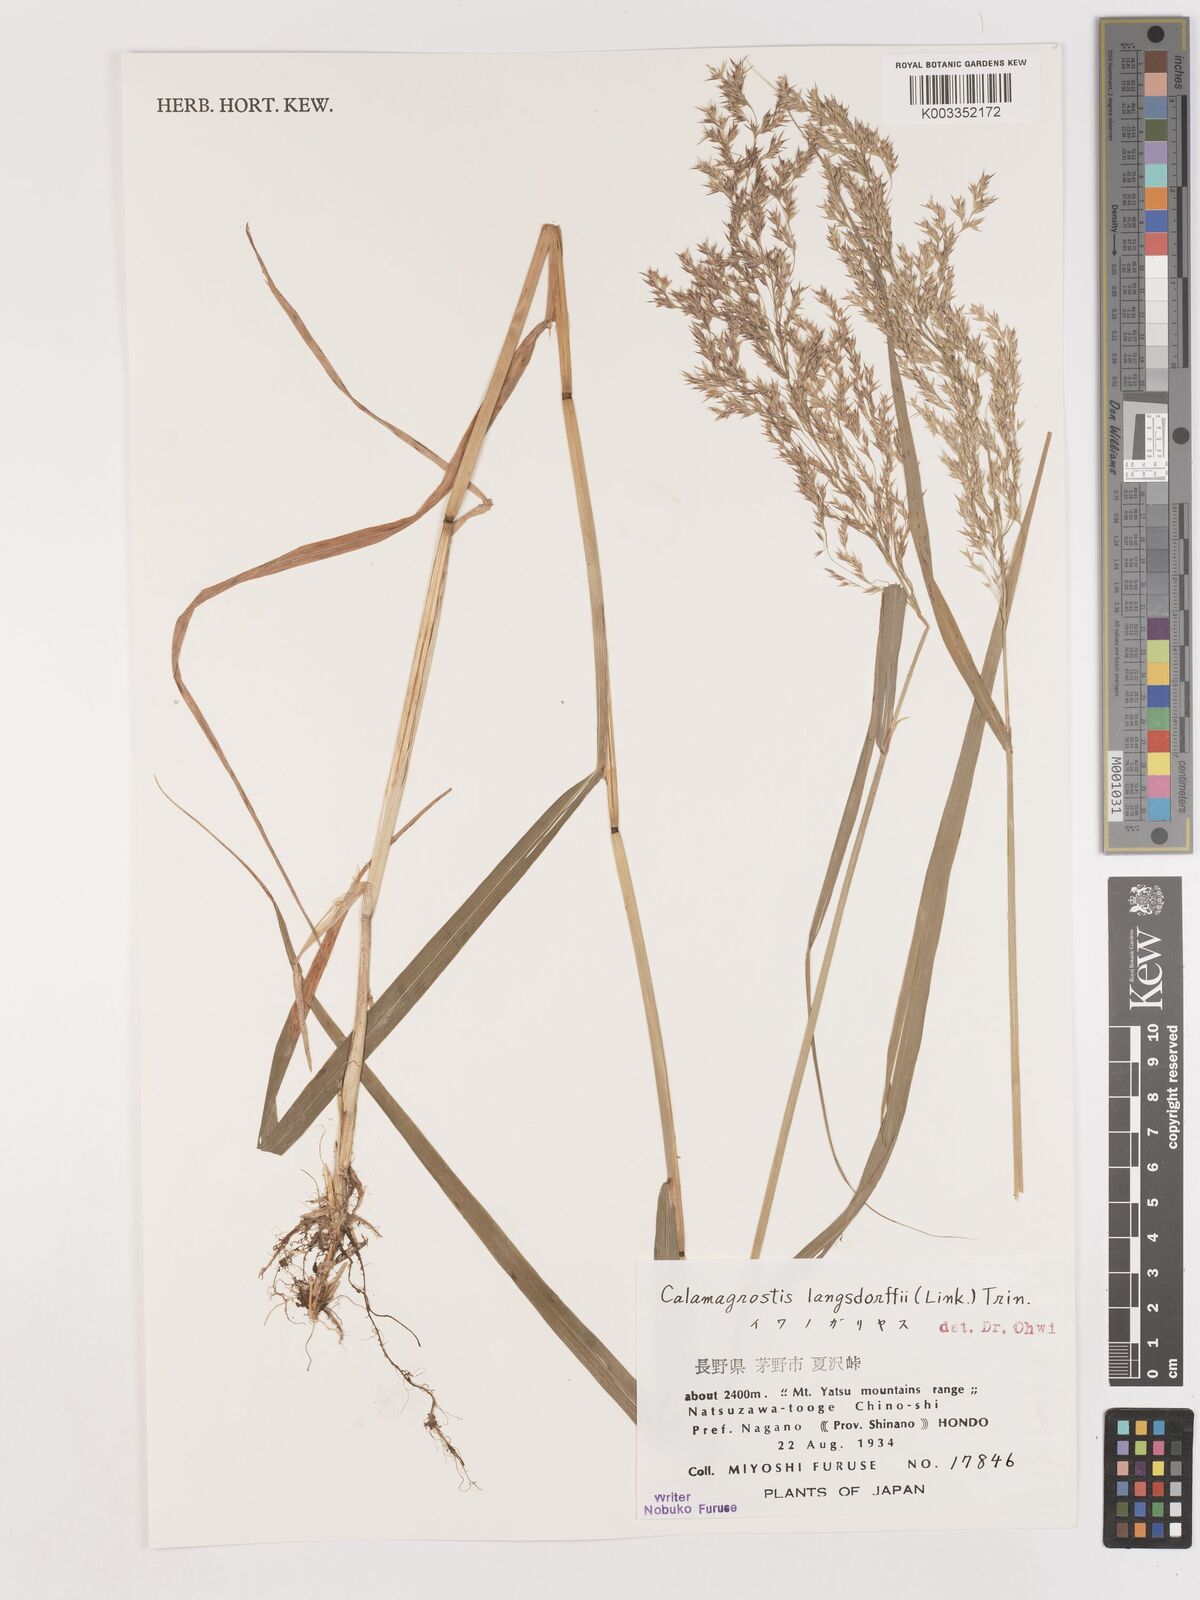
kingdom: Plantae
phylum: Tracheophyta
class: Liliopsida
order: Poales
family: Poaceae
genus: Calamagrostis
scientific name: Calamagrostis purpurea
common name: Scandinavian small-reed
